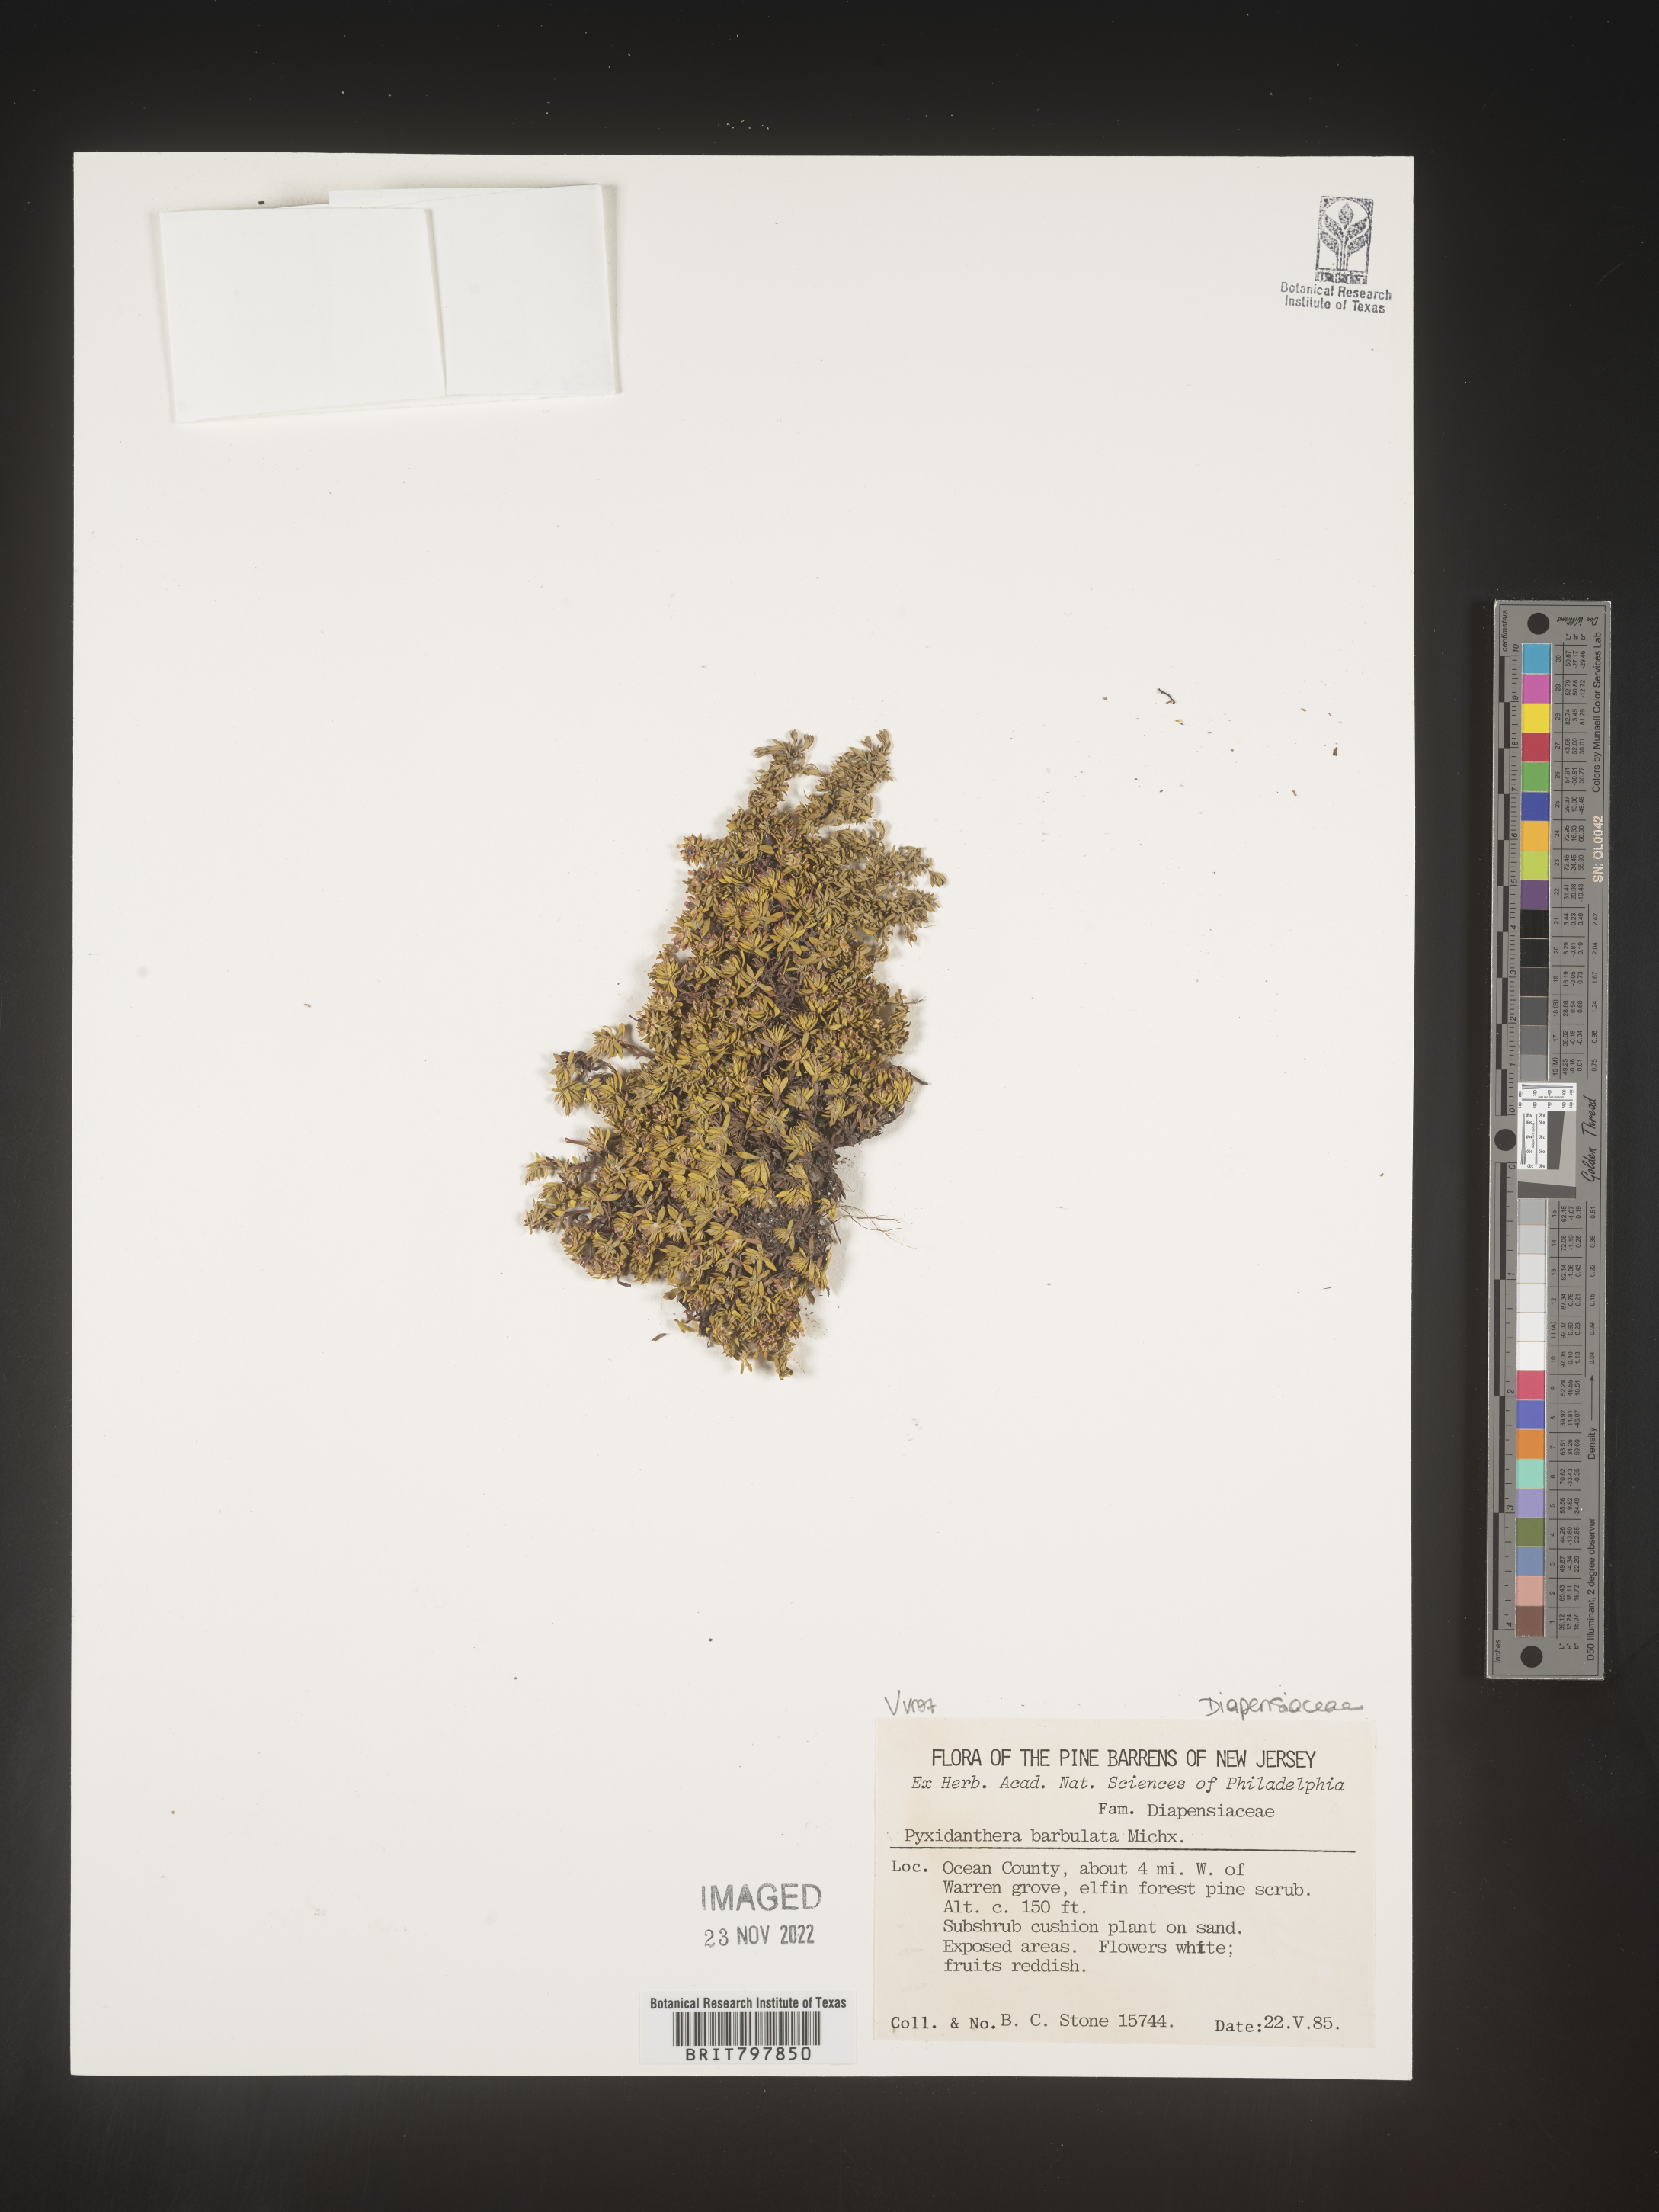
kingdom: Plantae
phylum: Tracheophyta
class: Magnoliopsida
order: Ericales
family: Diapensiaceae
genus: Pyxidanthera
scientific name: Pyxidanthera barbulata
